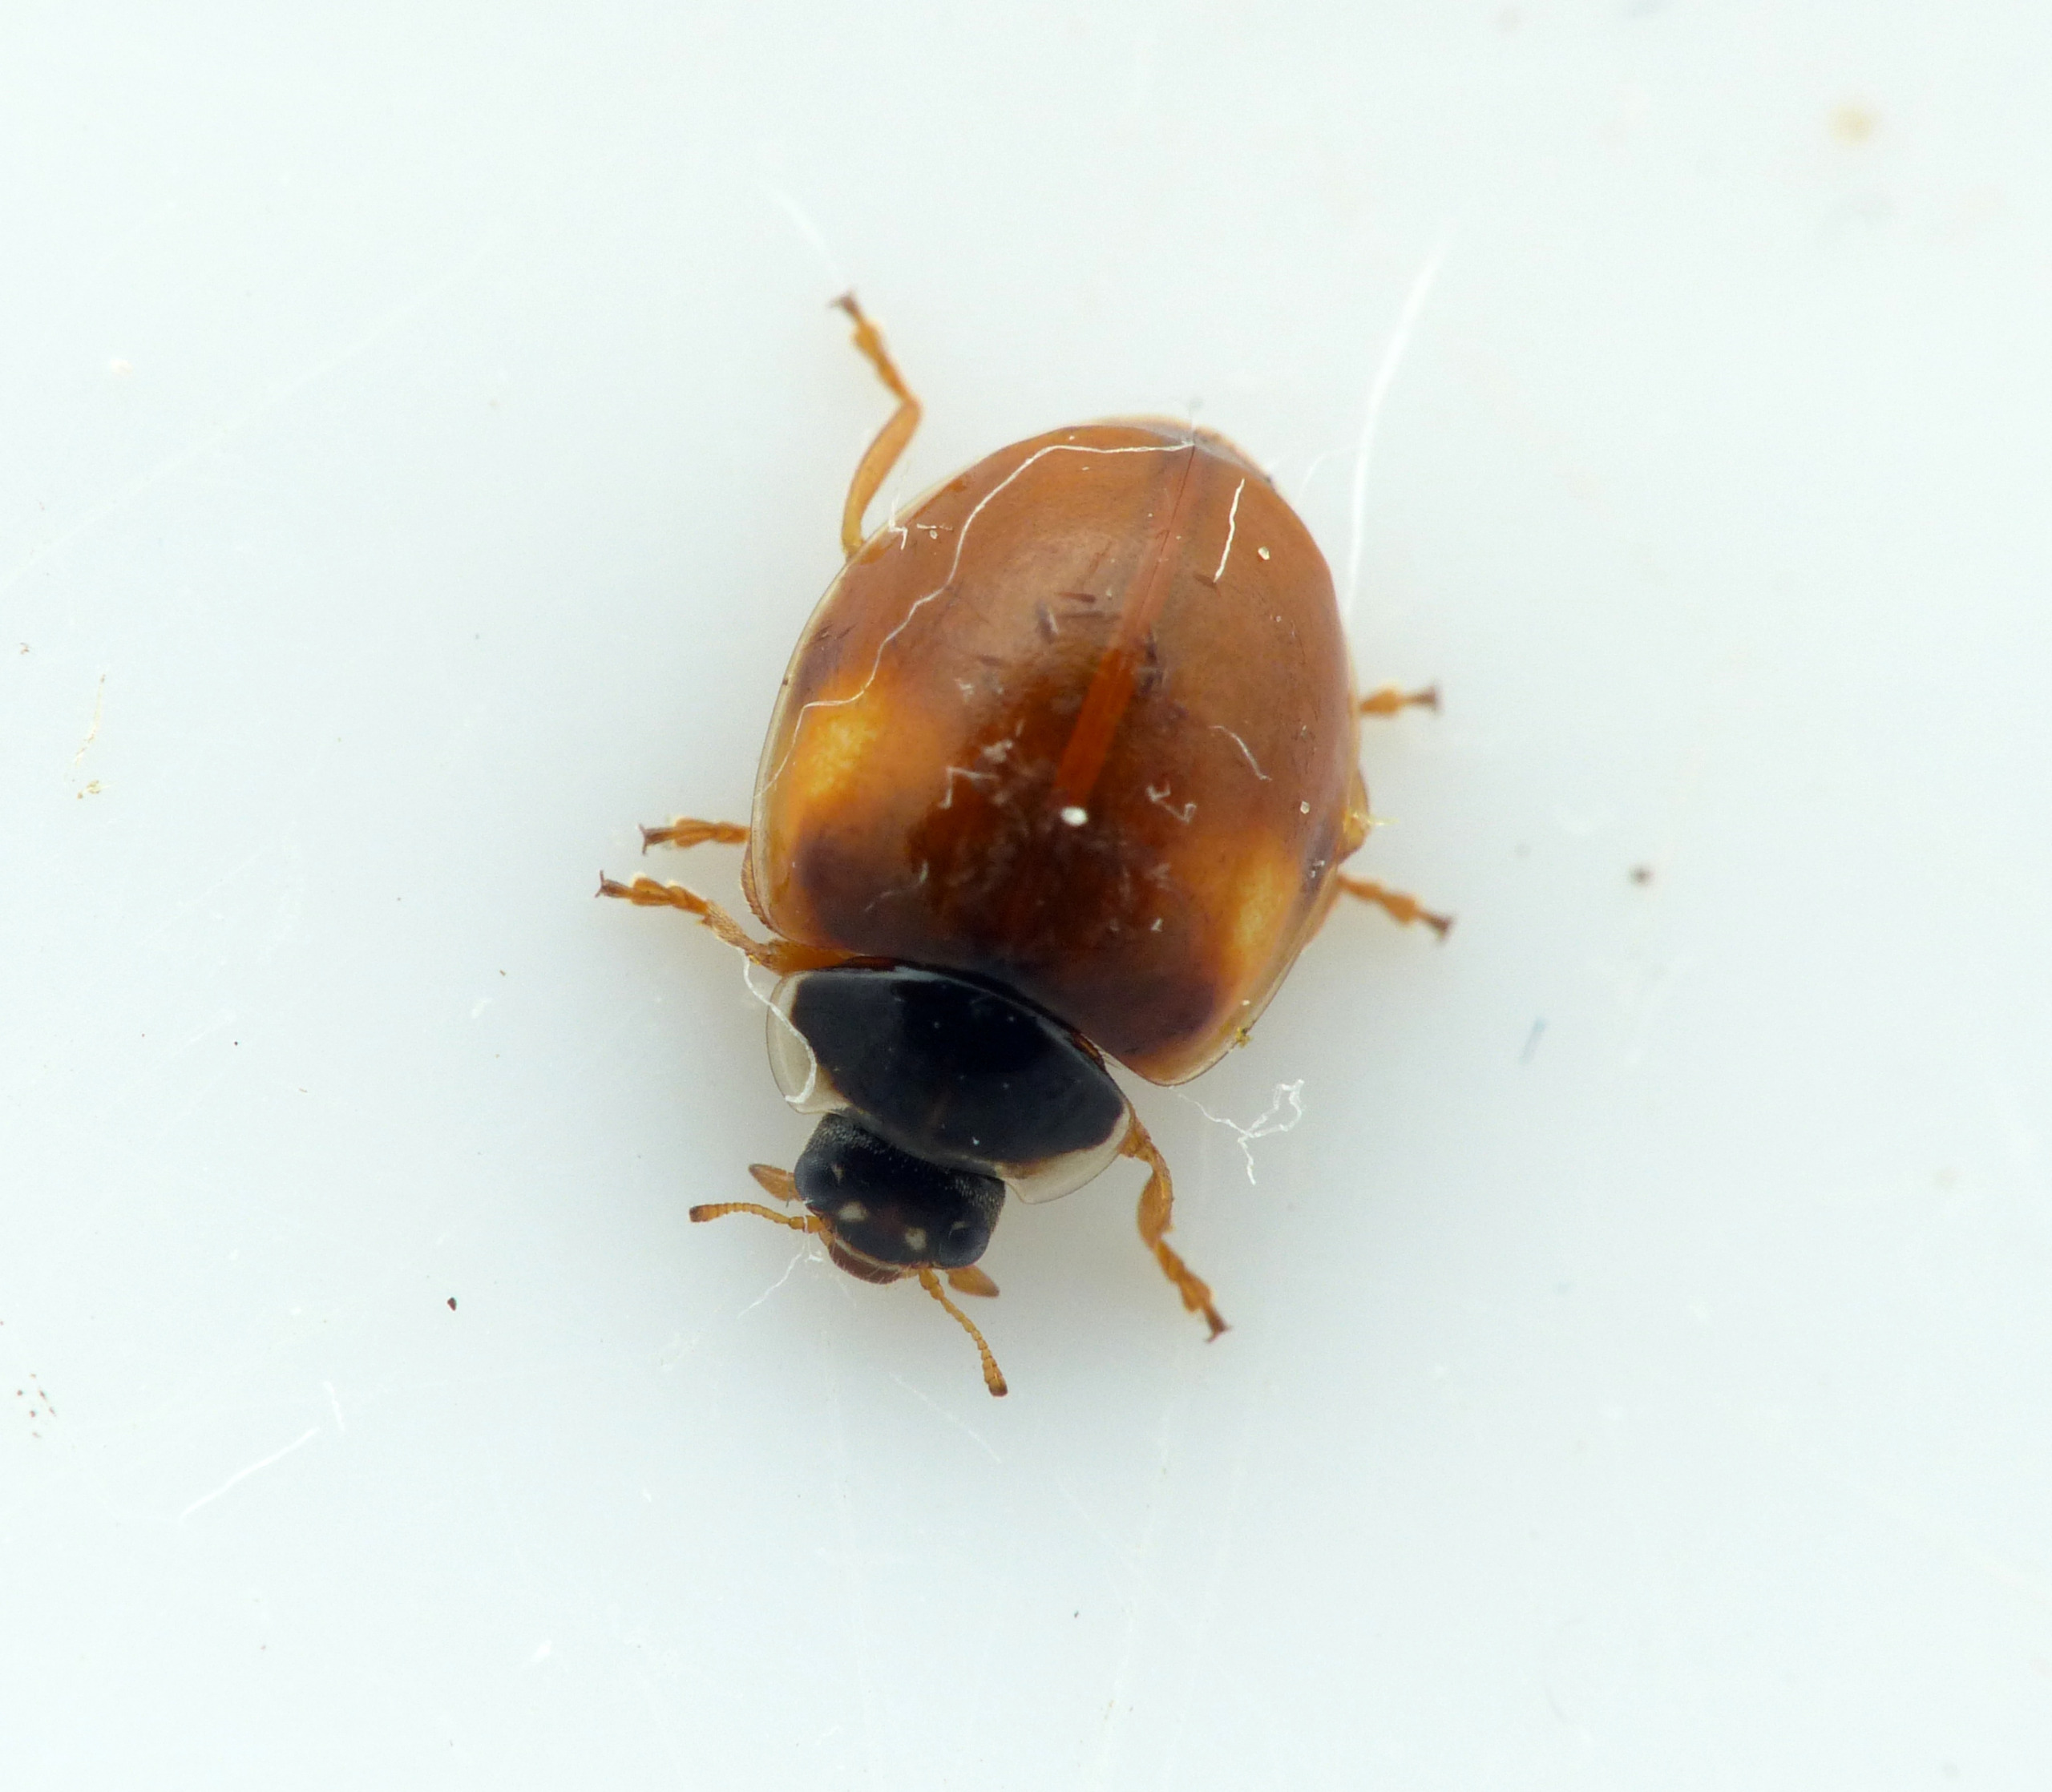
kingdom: Animalia
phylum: Arthropoda
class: Insecta
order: Coleoptera
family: Coccinellidae
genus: Adalia
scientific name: Adalia decempunctata
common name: Tiplettet mariehøne
